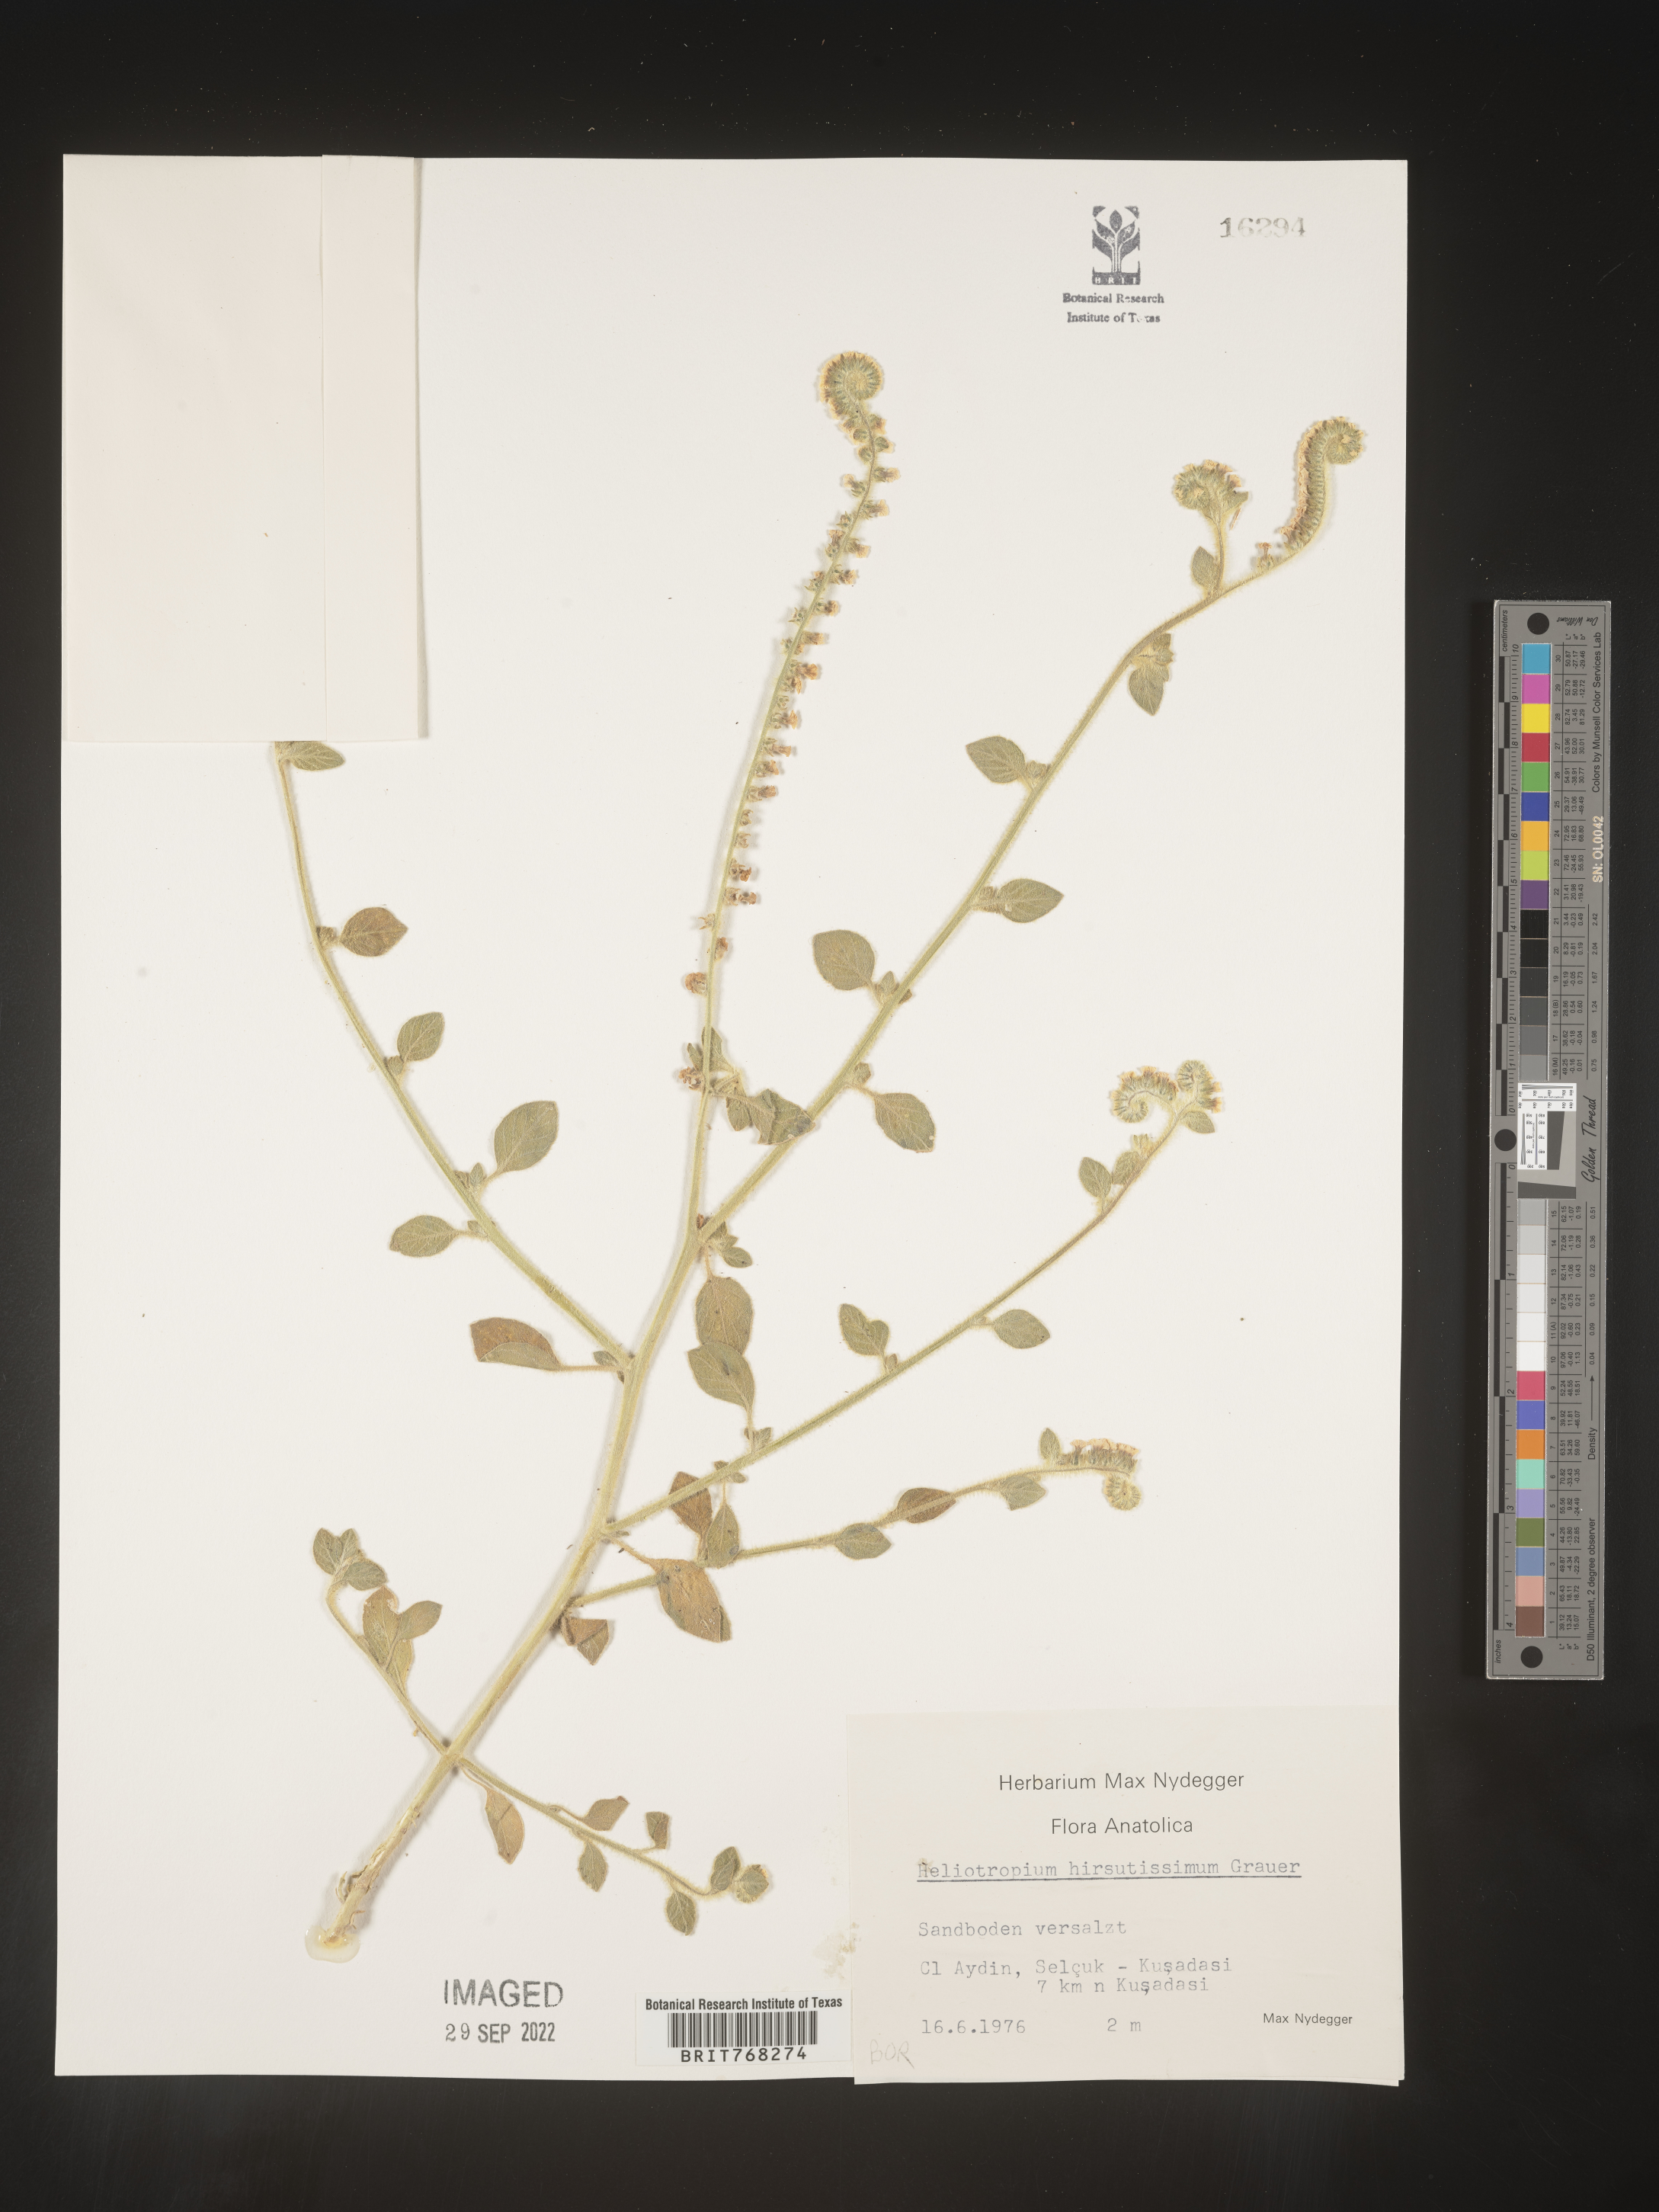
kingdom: Plantae
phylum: Tracheophyta
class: Magnoliopsida
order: Boraginales
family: Heliotropiaceae
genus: Heliotropium
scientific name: Heliotropium
